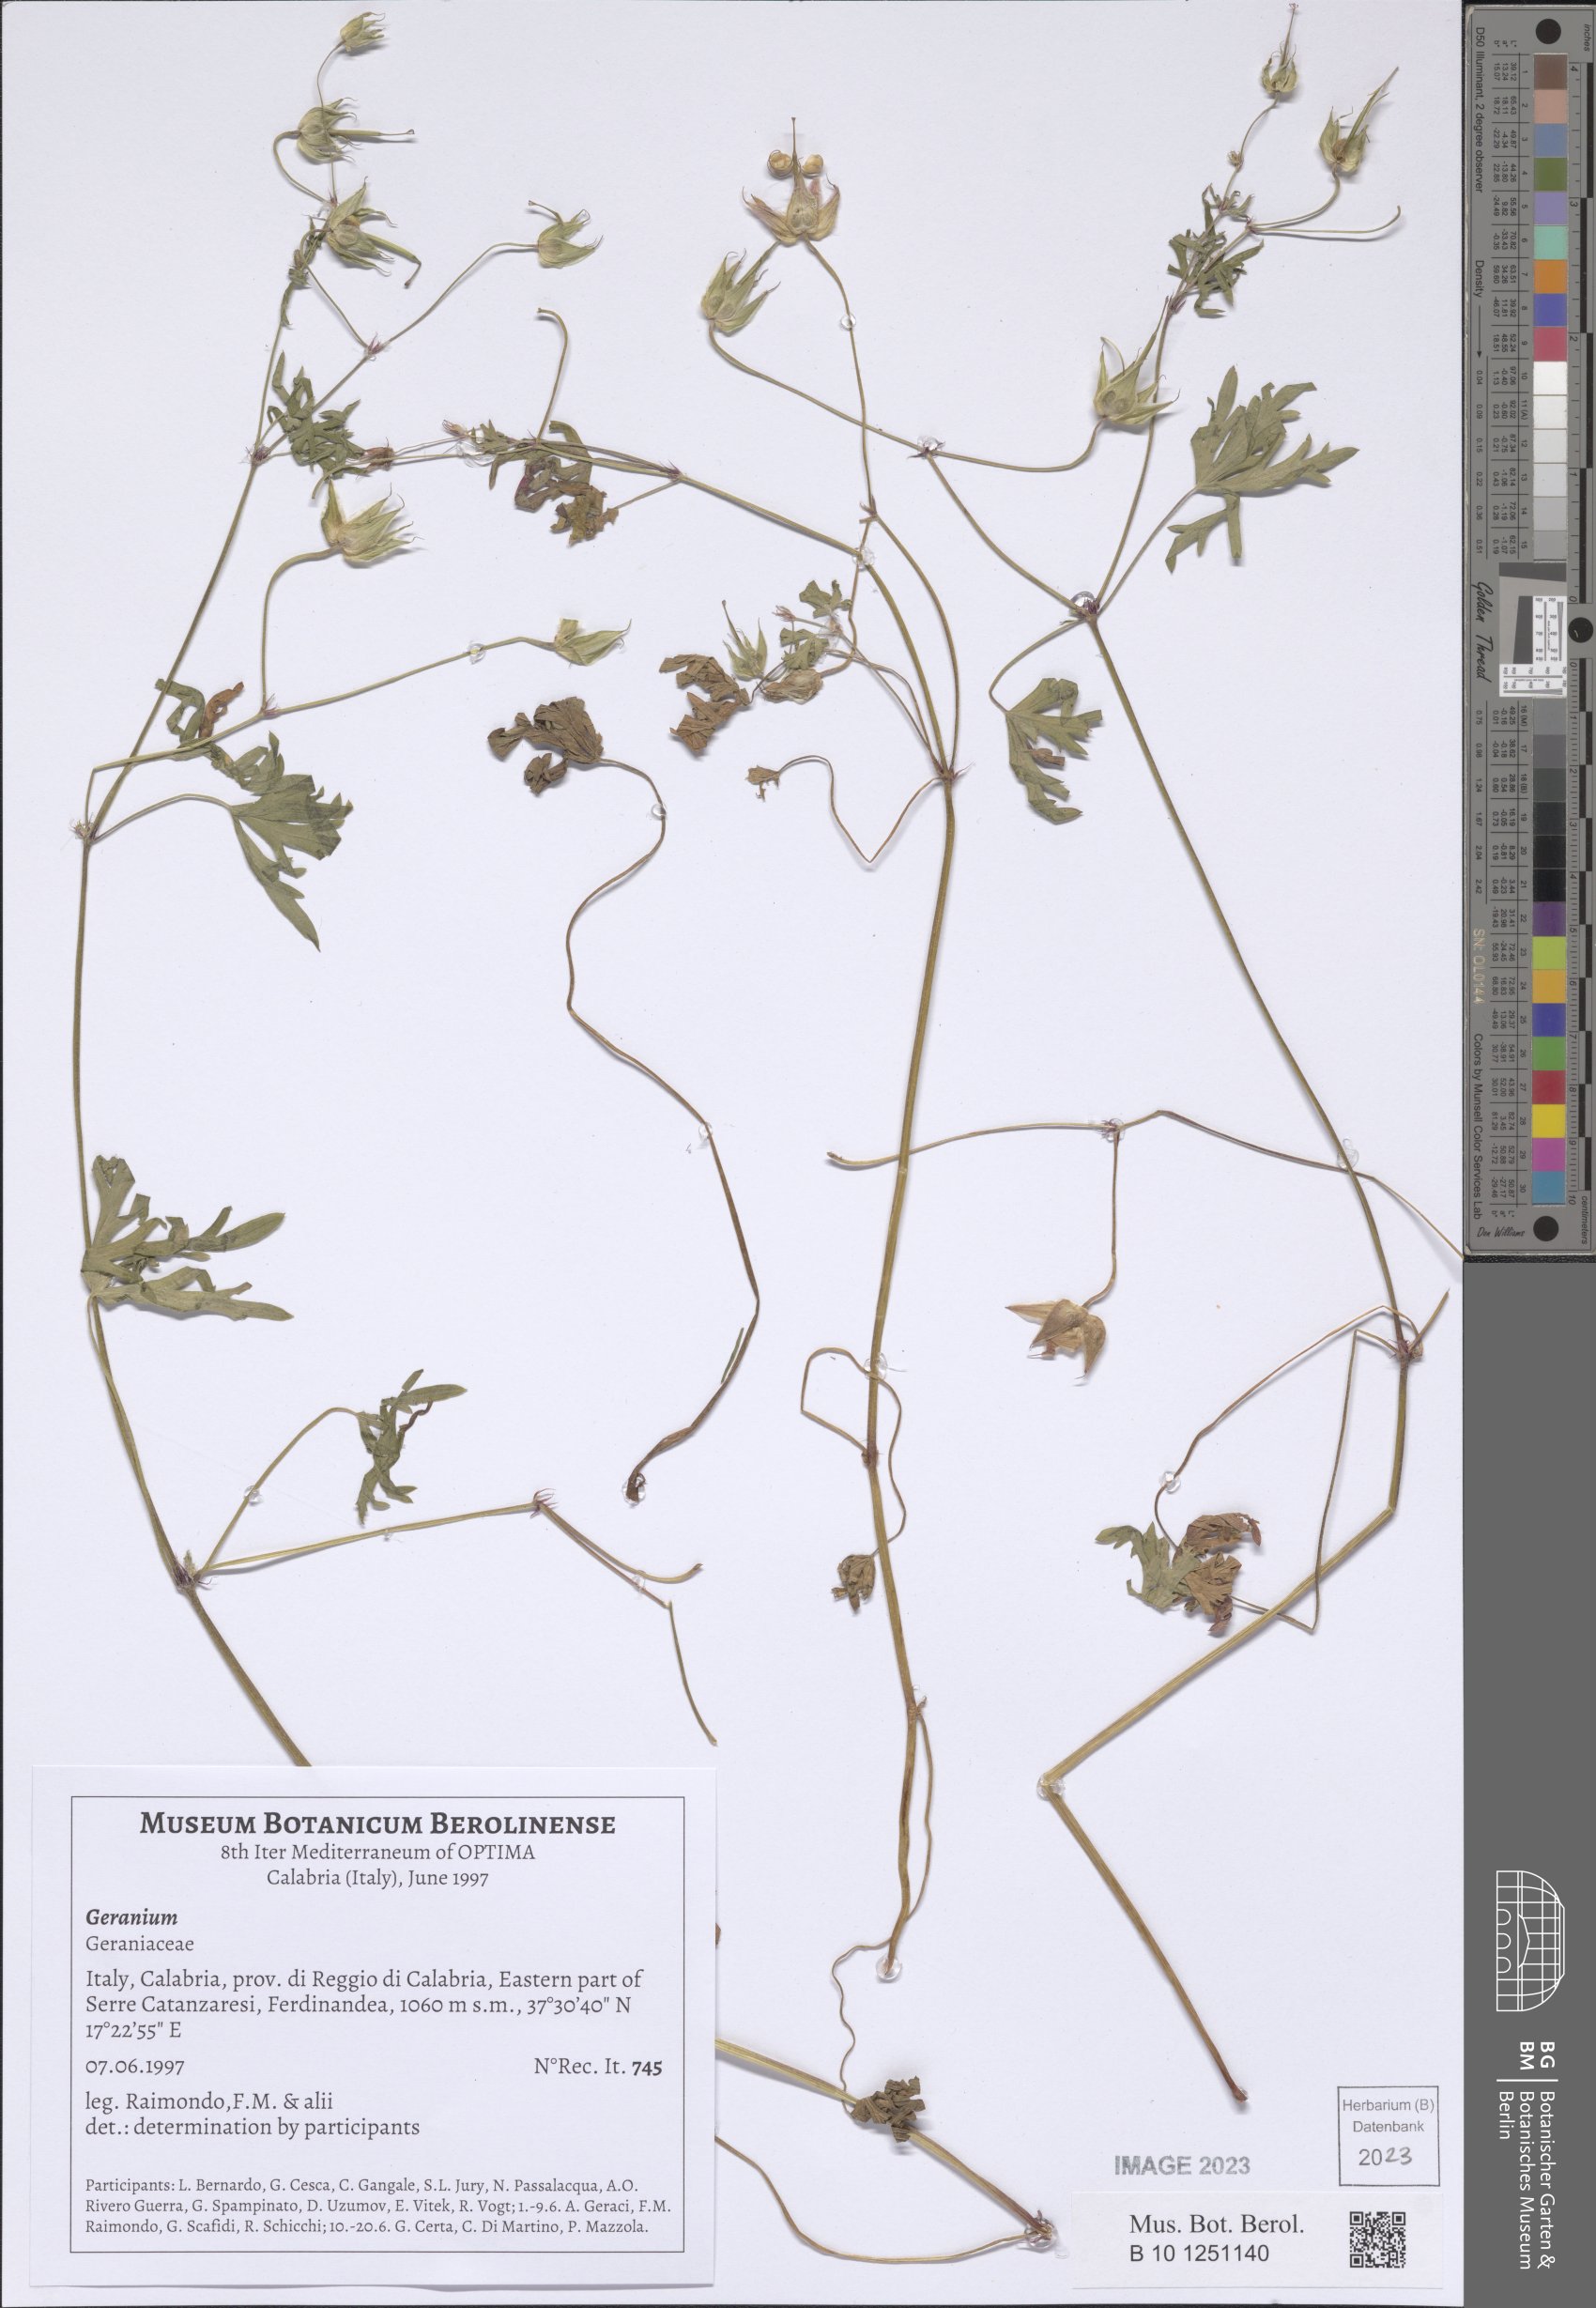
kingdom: Plantae
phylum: Tracheophyta
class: Magnoliopsida
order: Geraniales
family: Geraniaceae
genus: Geranium
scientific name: Geranium
